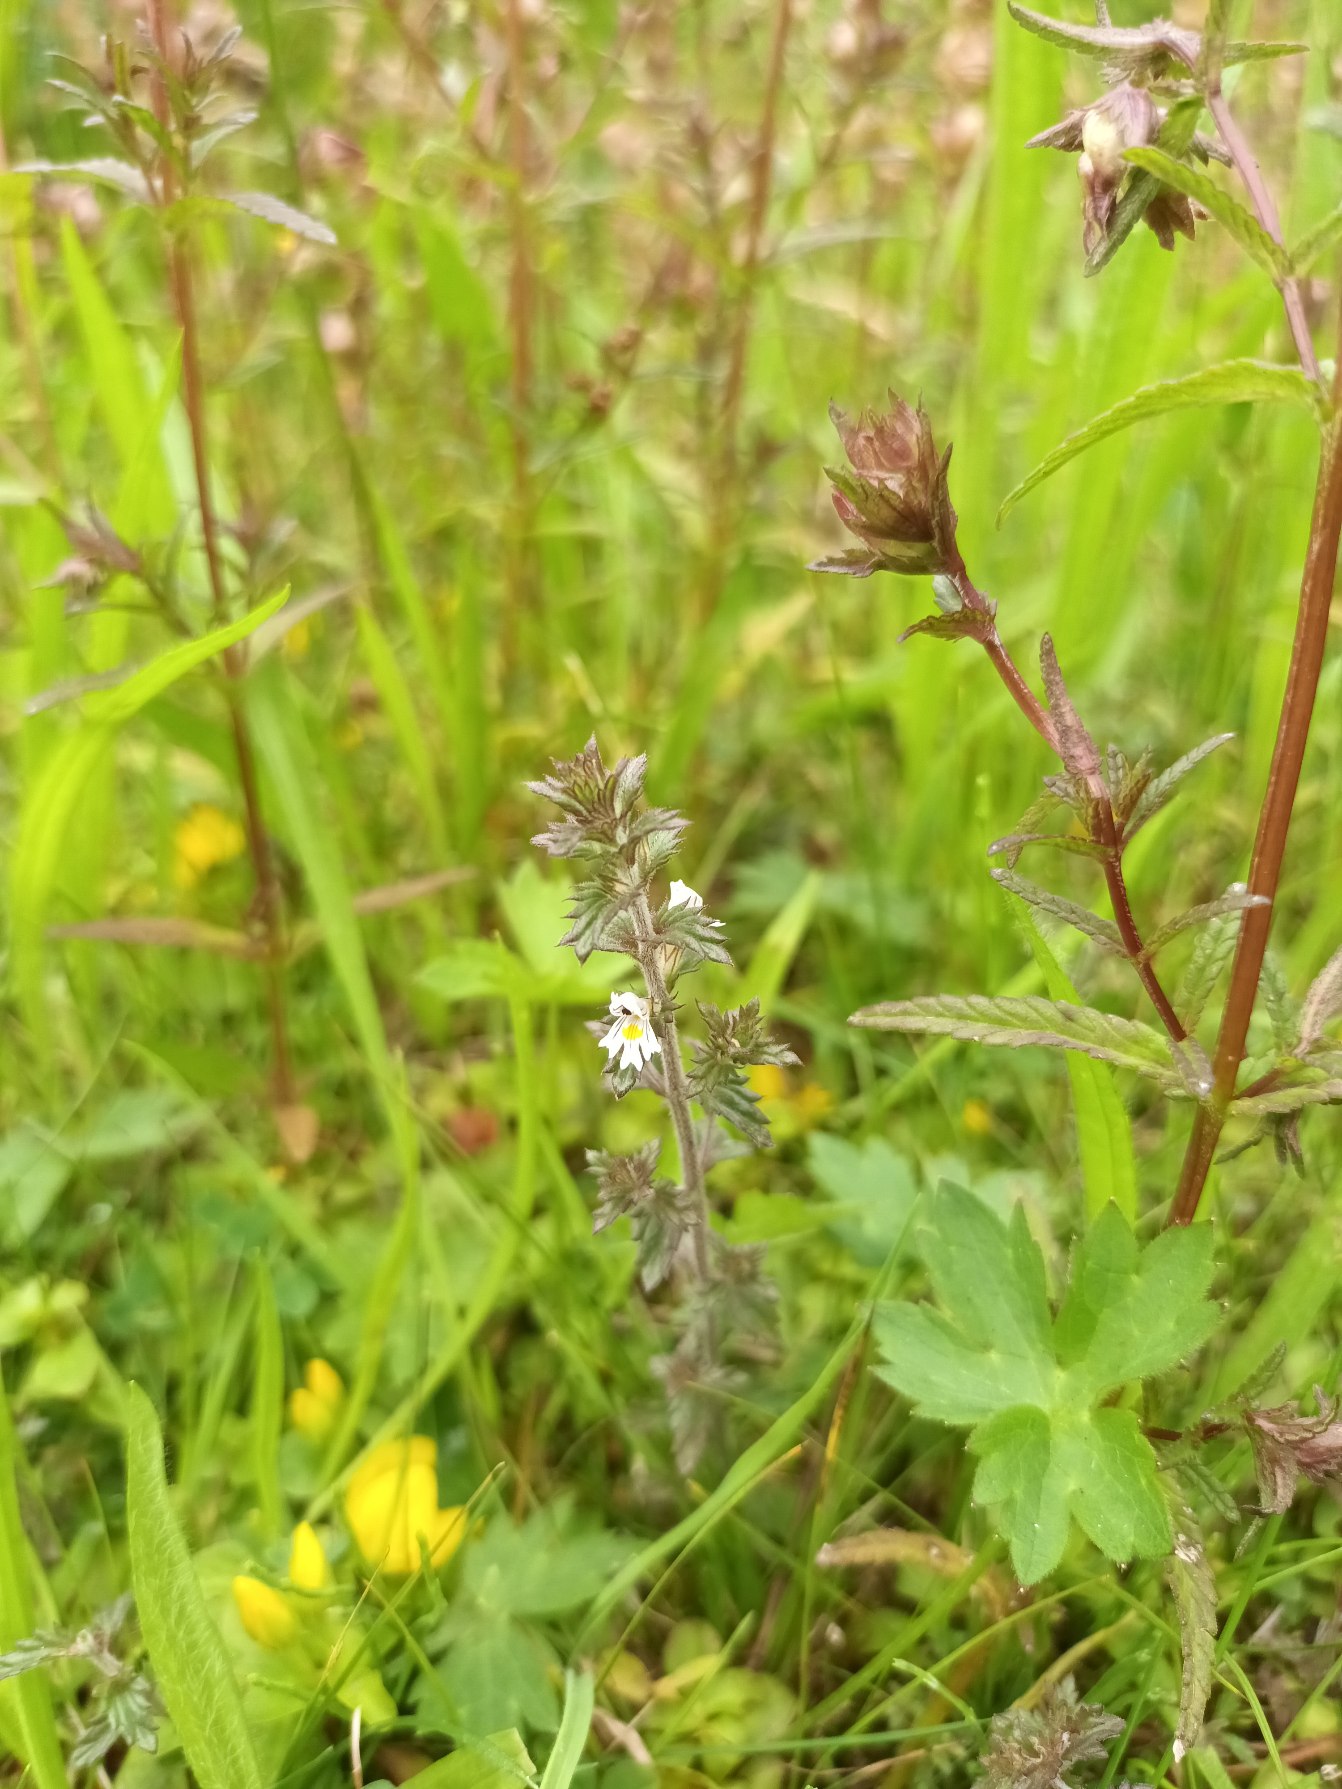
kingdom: Plantae
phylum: Tracheophyta
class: Magnoliopsida
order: Lamiales
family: Orobanchaceae
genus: Euphrasia
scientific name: Euphrasia
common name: Øjentrøstslægten
